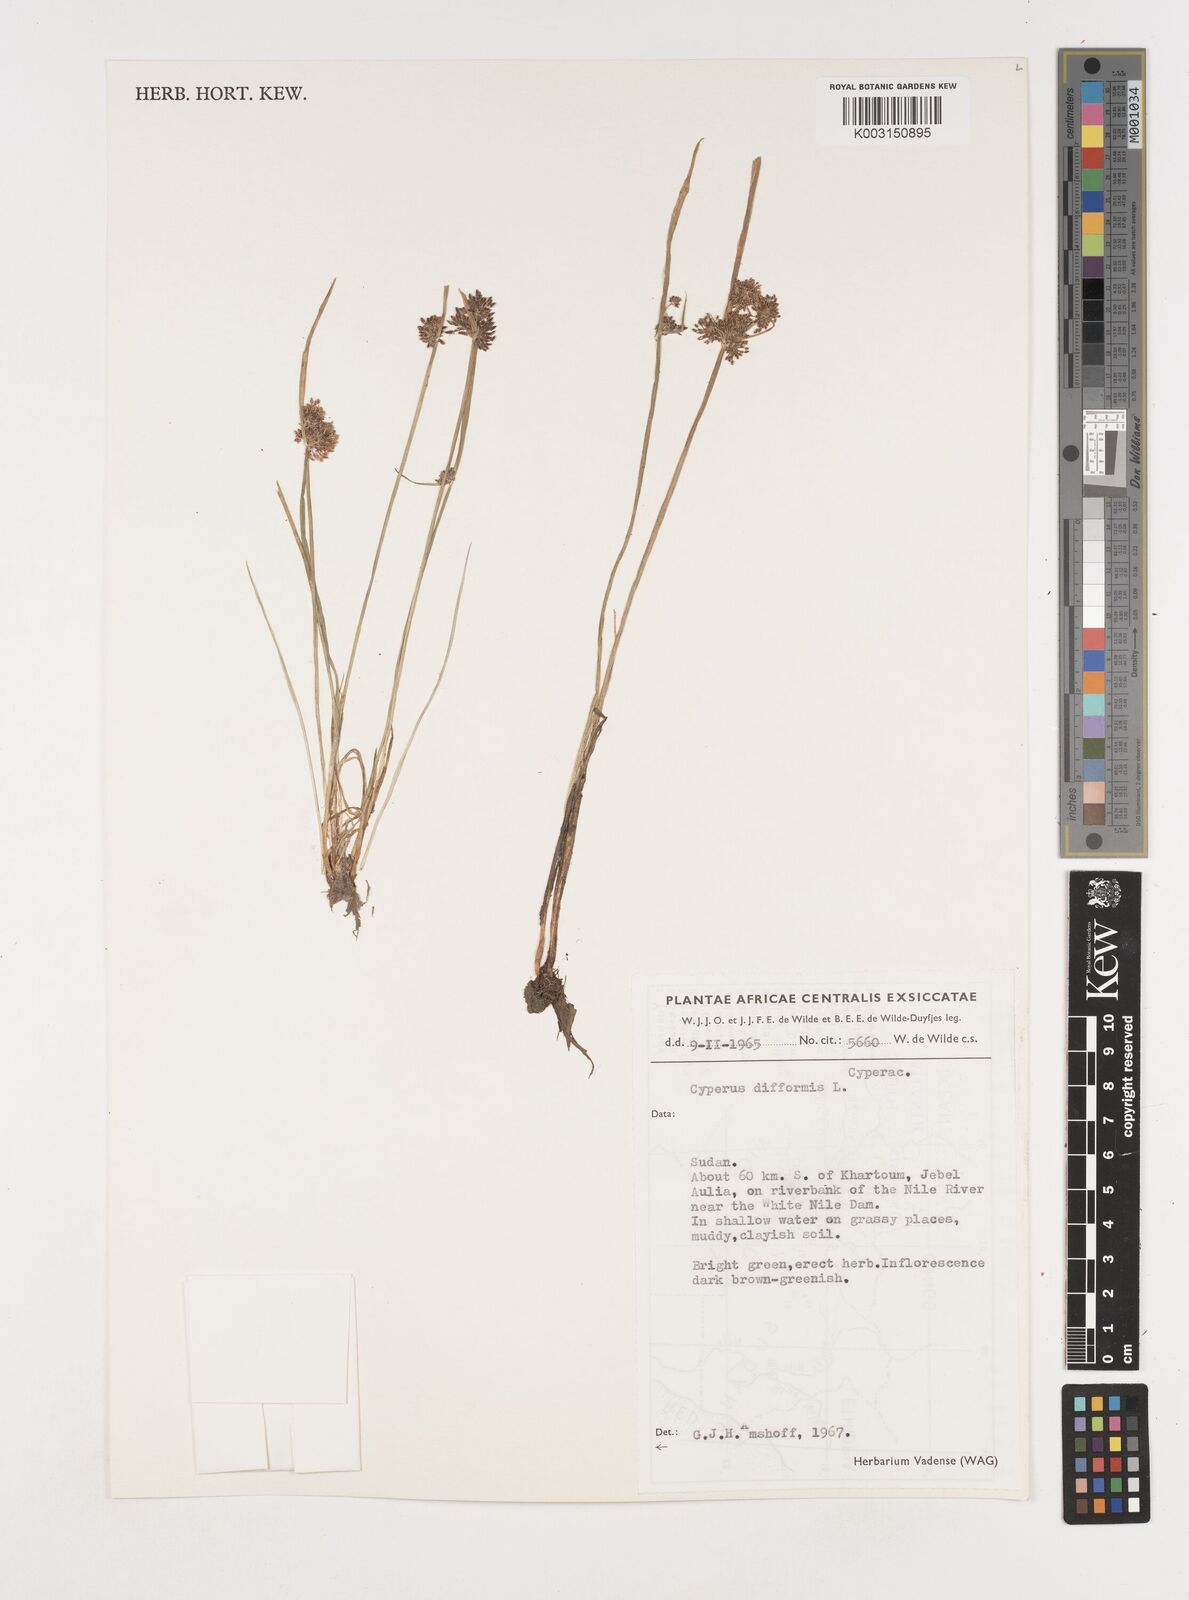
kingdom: Plantae
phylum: Tracheophyta
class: Liliopsida
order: Poales
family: Cyperaceae
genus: Cyperus
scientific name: Cyperus difformis
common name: Variable flatsedge
